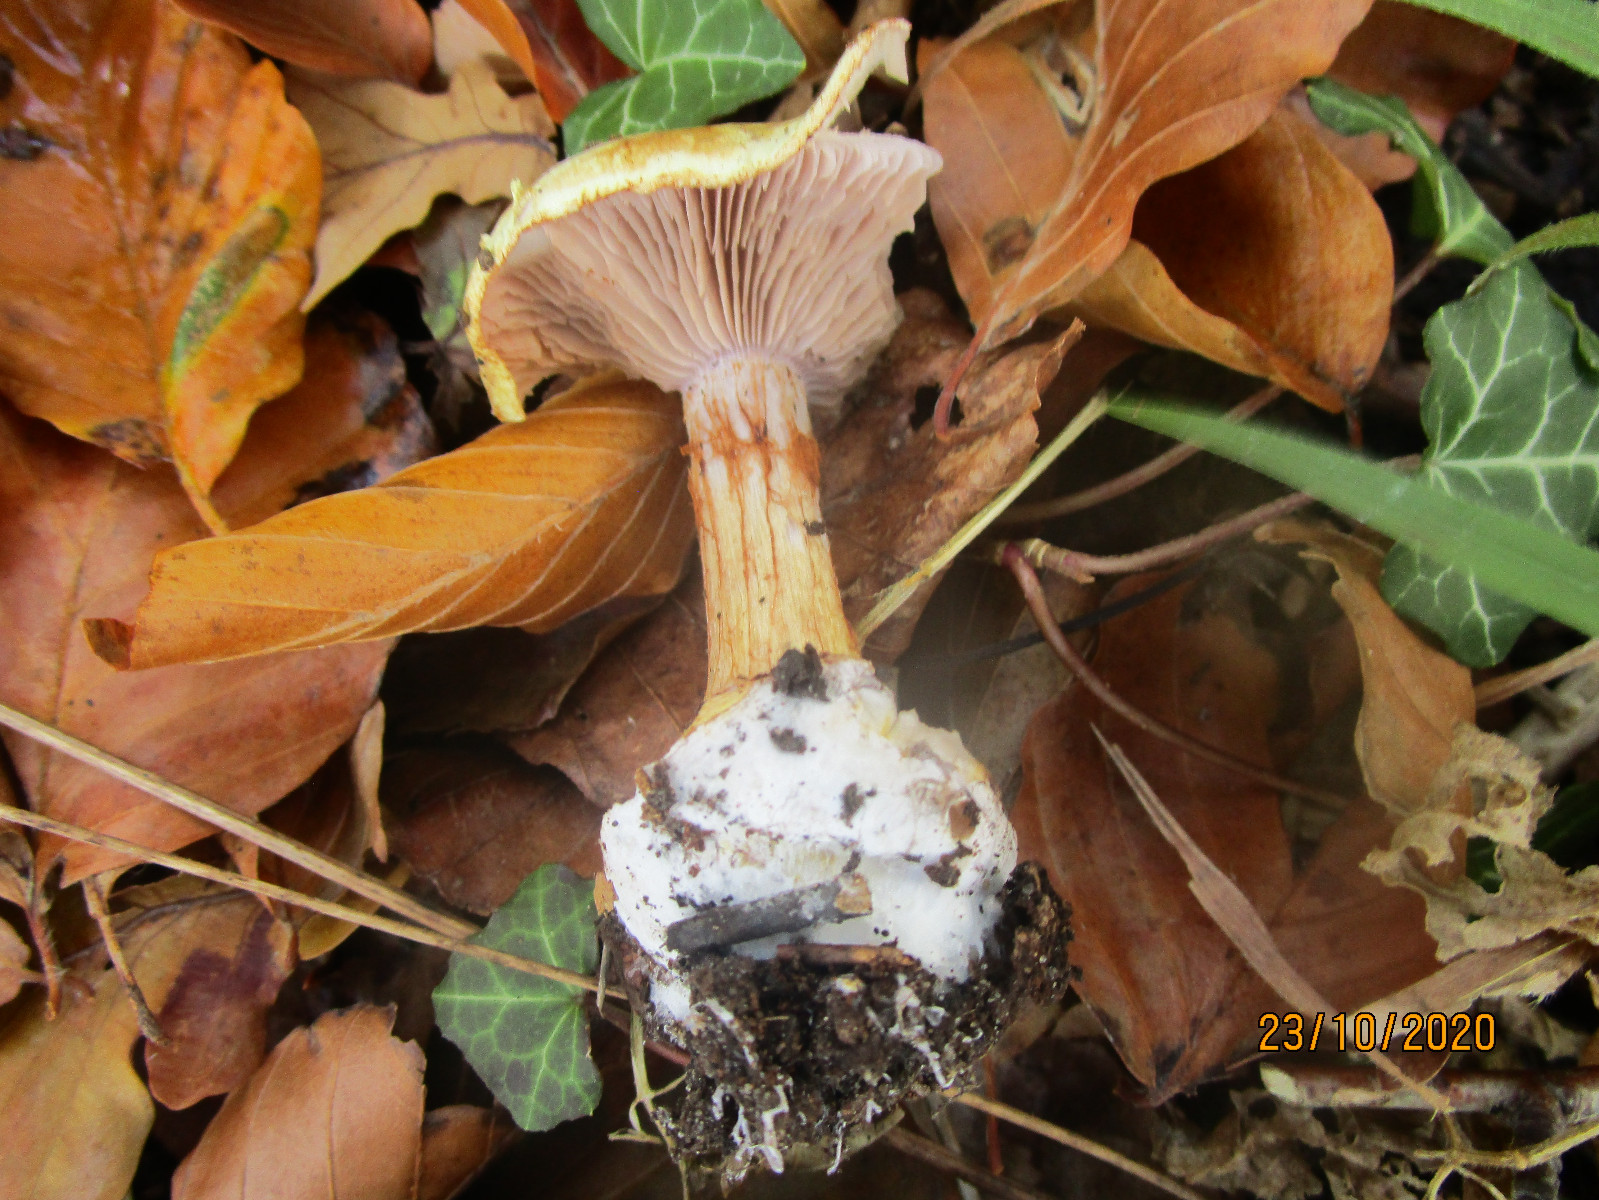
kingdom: Fungi
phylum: Basidiomycota
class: Agaricomycetes
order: Agaricales
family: Cortinariaceae
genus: Calonarius
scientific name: Calonarius catharinae
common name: Katrines slørhat
